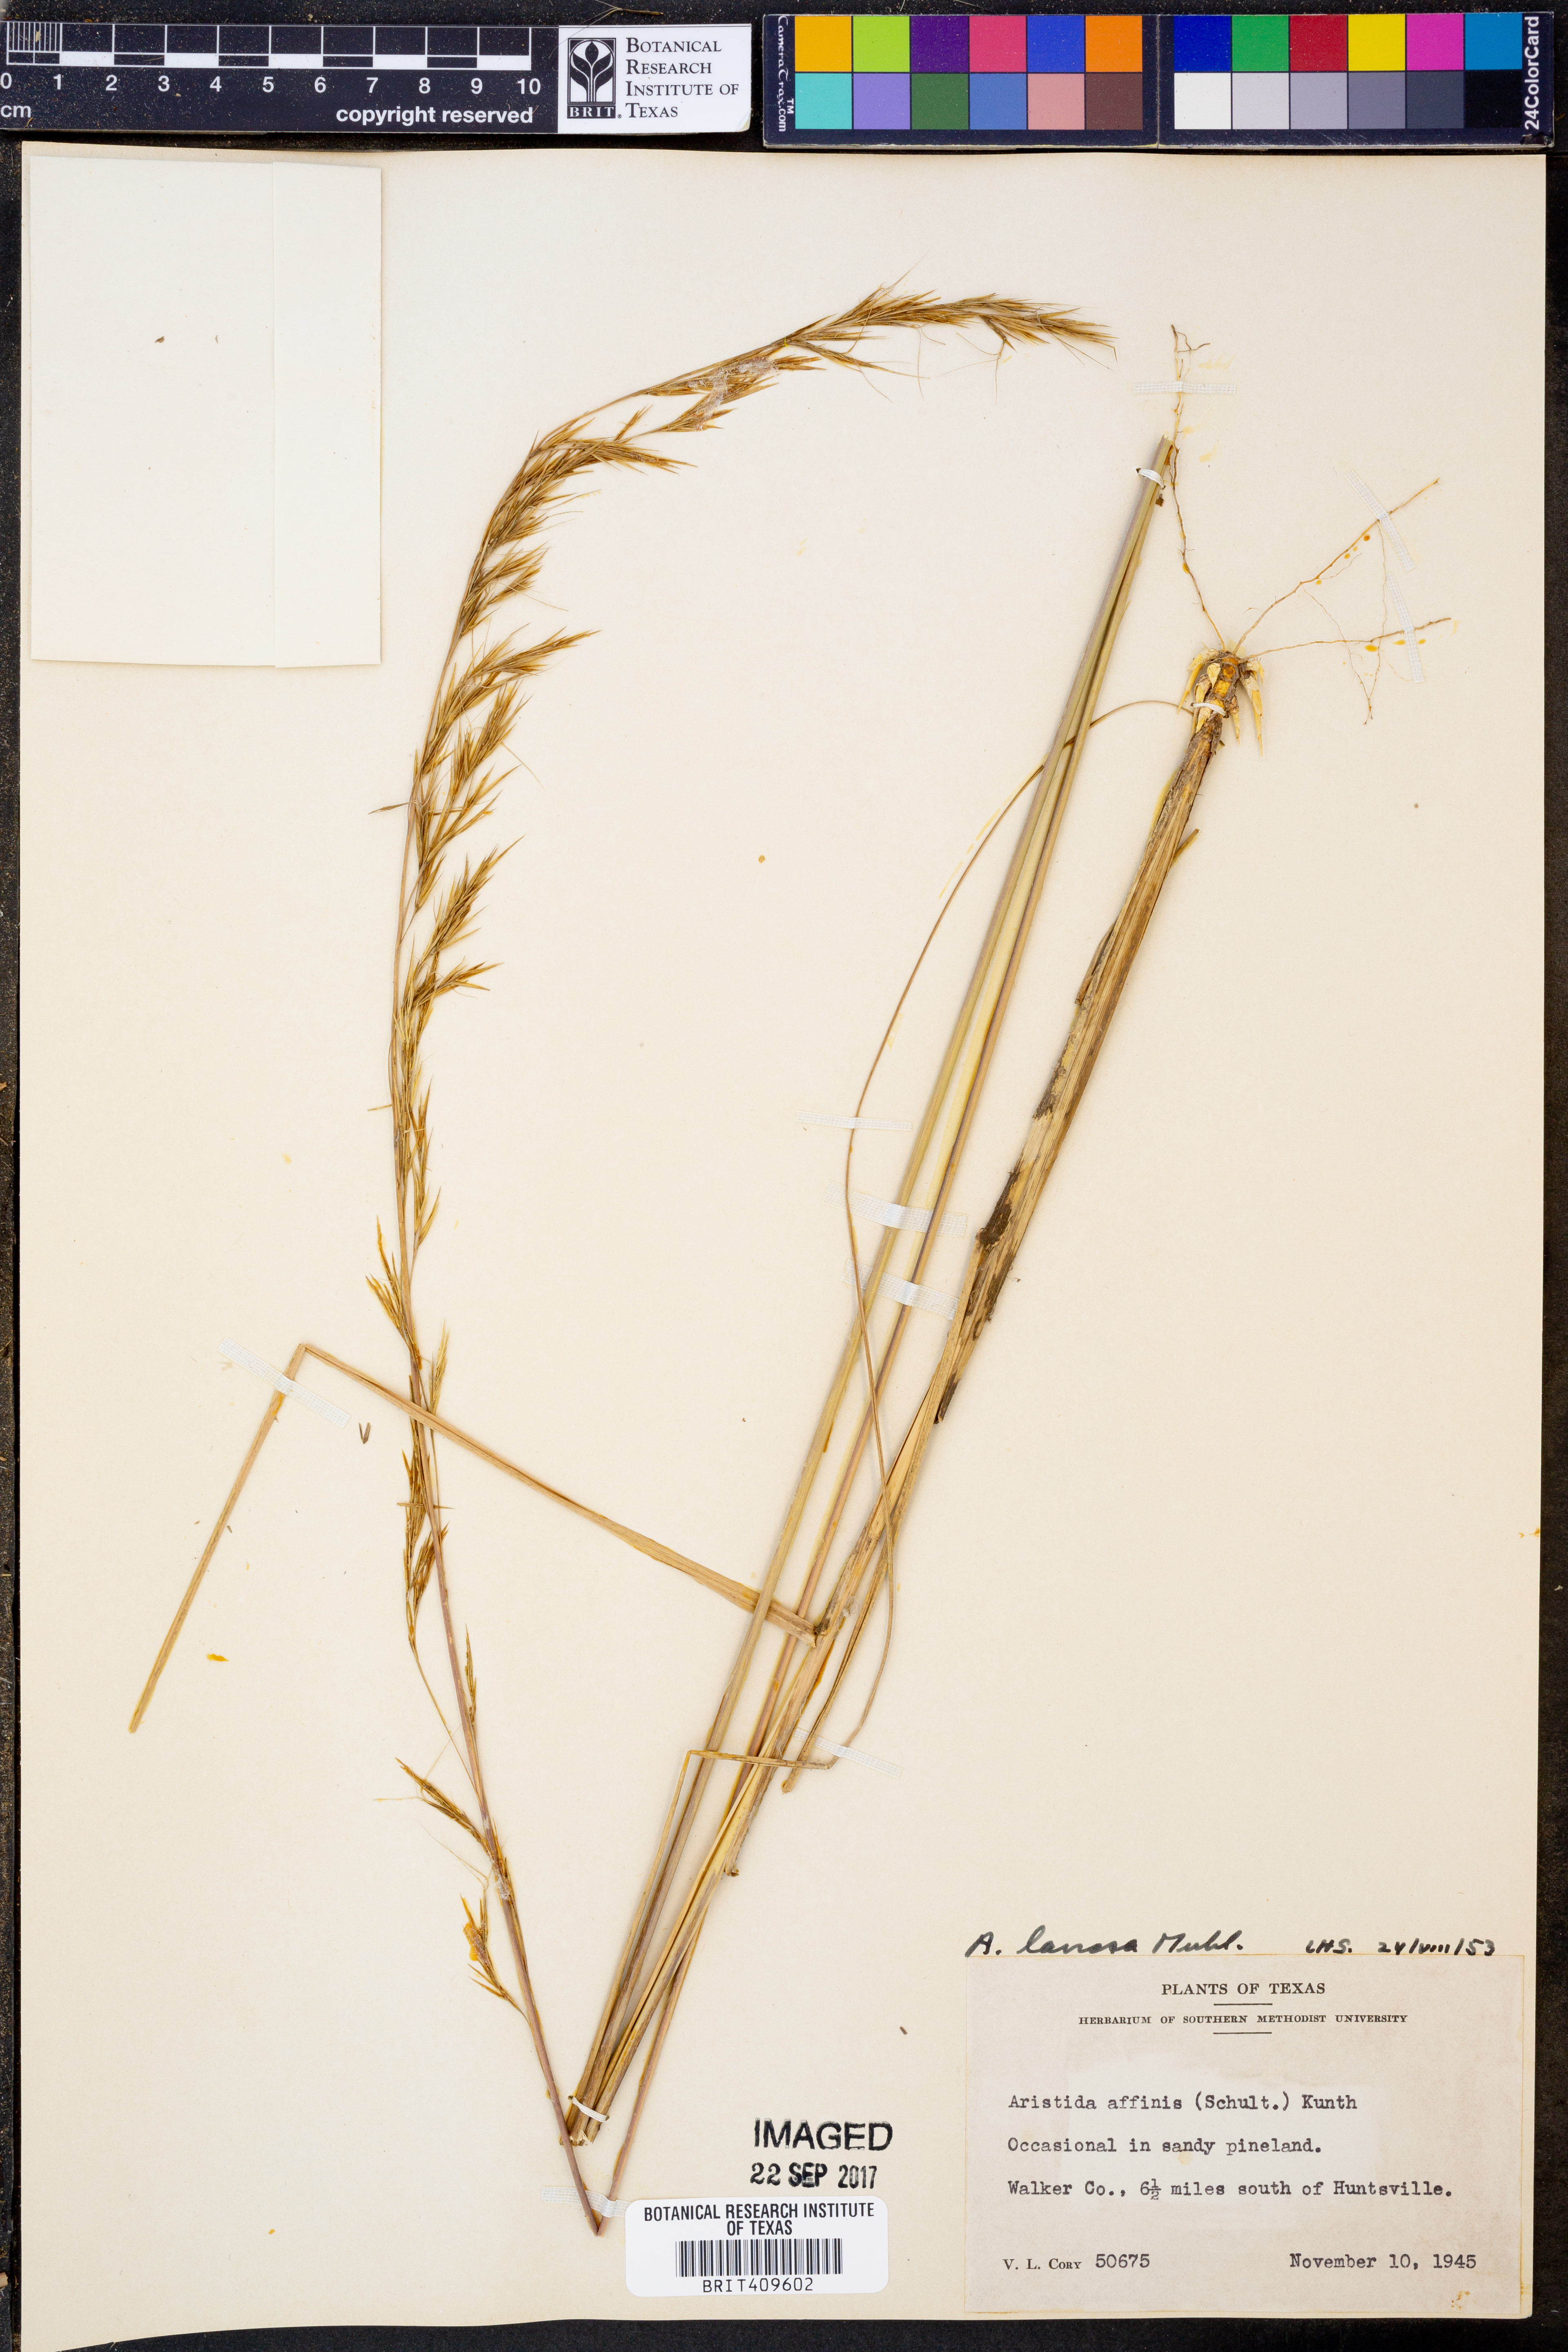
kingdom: Plantae
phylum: Tracheophyta
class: Liliopsida
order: Poales
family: Poaceae
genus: Aristida
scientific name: Aristida lanosa
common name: Woolly three-awn
